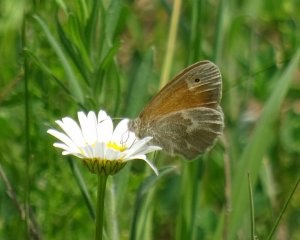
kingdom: Animalia
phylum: Arthropoda
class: Insecta
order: Lepidoptera
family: Nymphalidae
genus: Coenonympha
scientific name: Coenonympha tullia
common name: Large Heath
